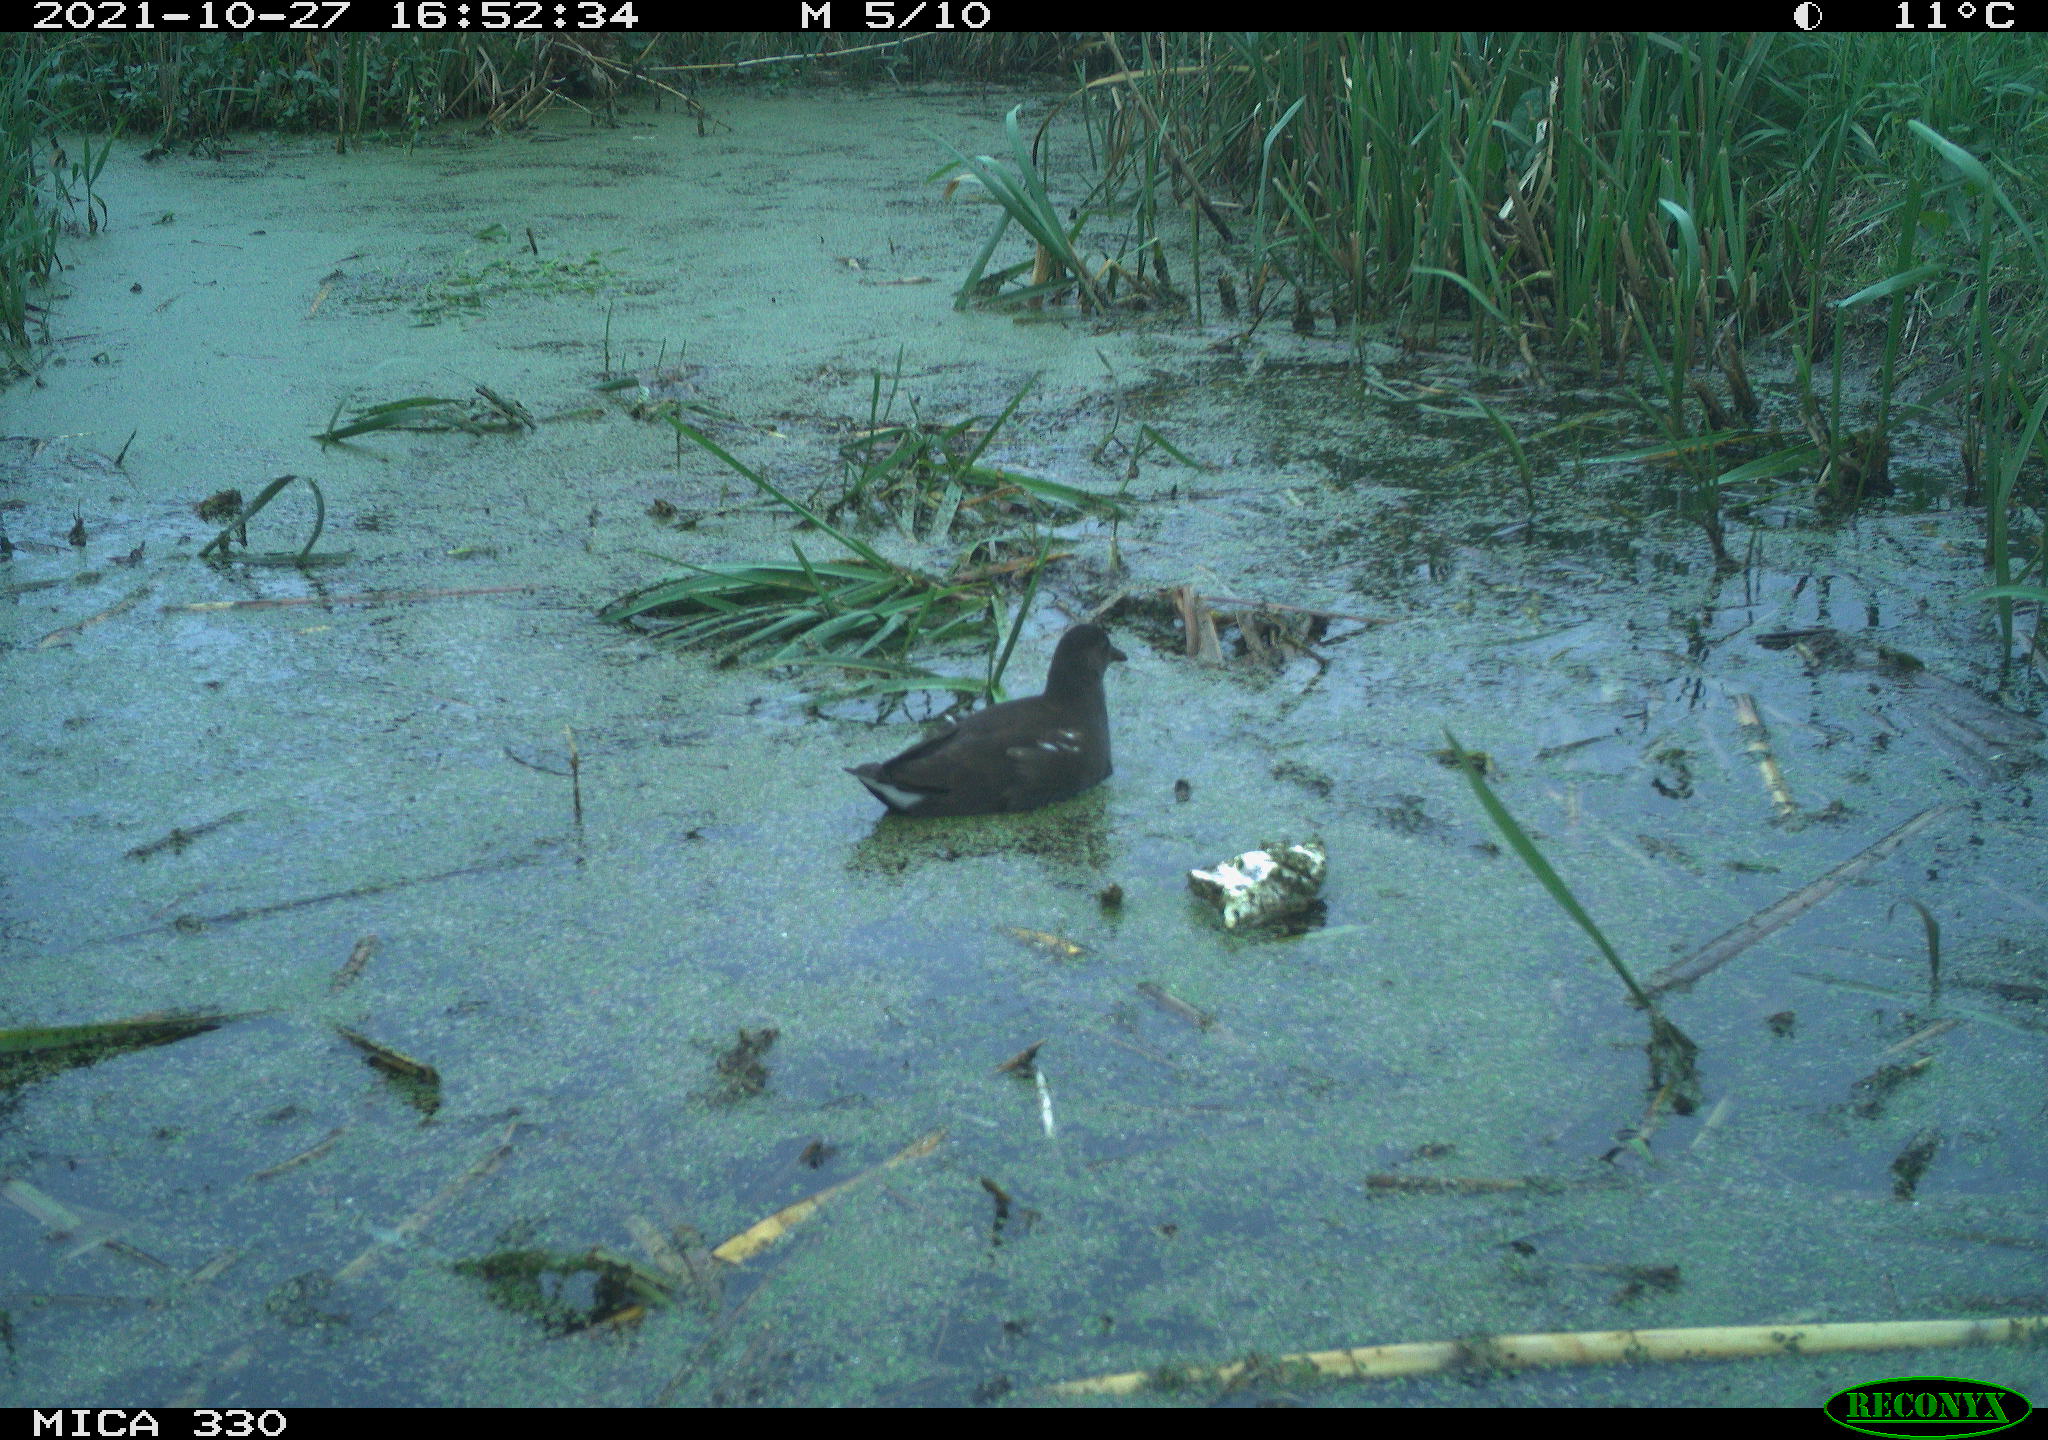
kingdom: Animalia
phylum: Chordata
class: Aves
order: Gruiformes
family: Rallidae
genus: Gallinula
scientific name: Gallinula chloropus
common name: Common moorhen
